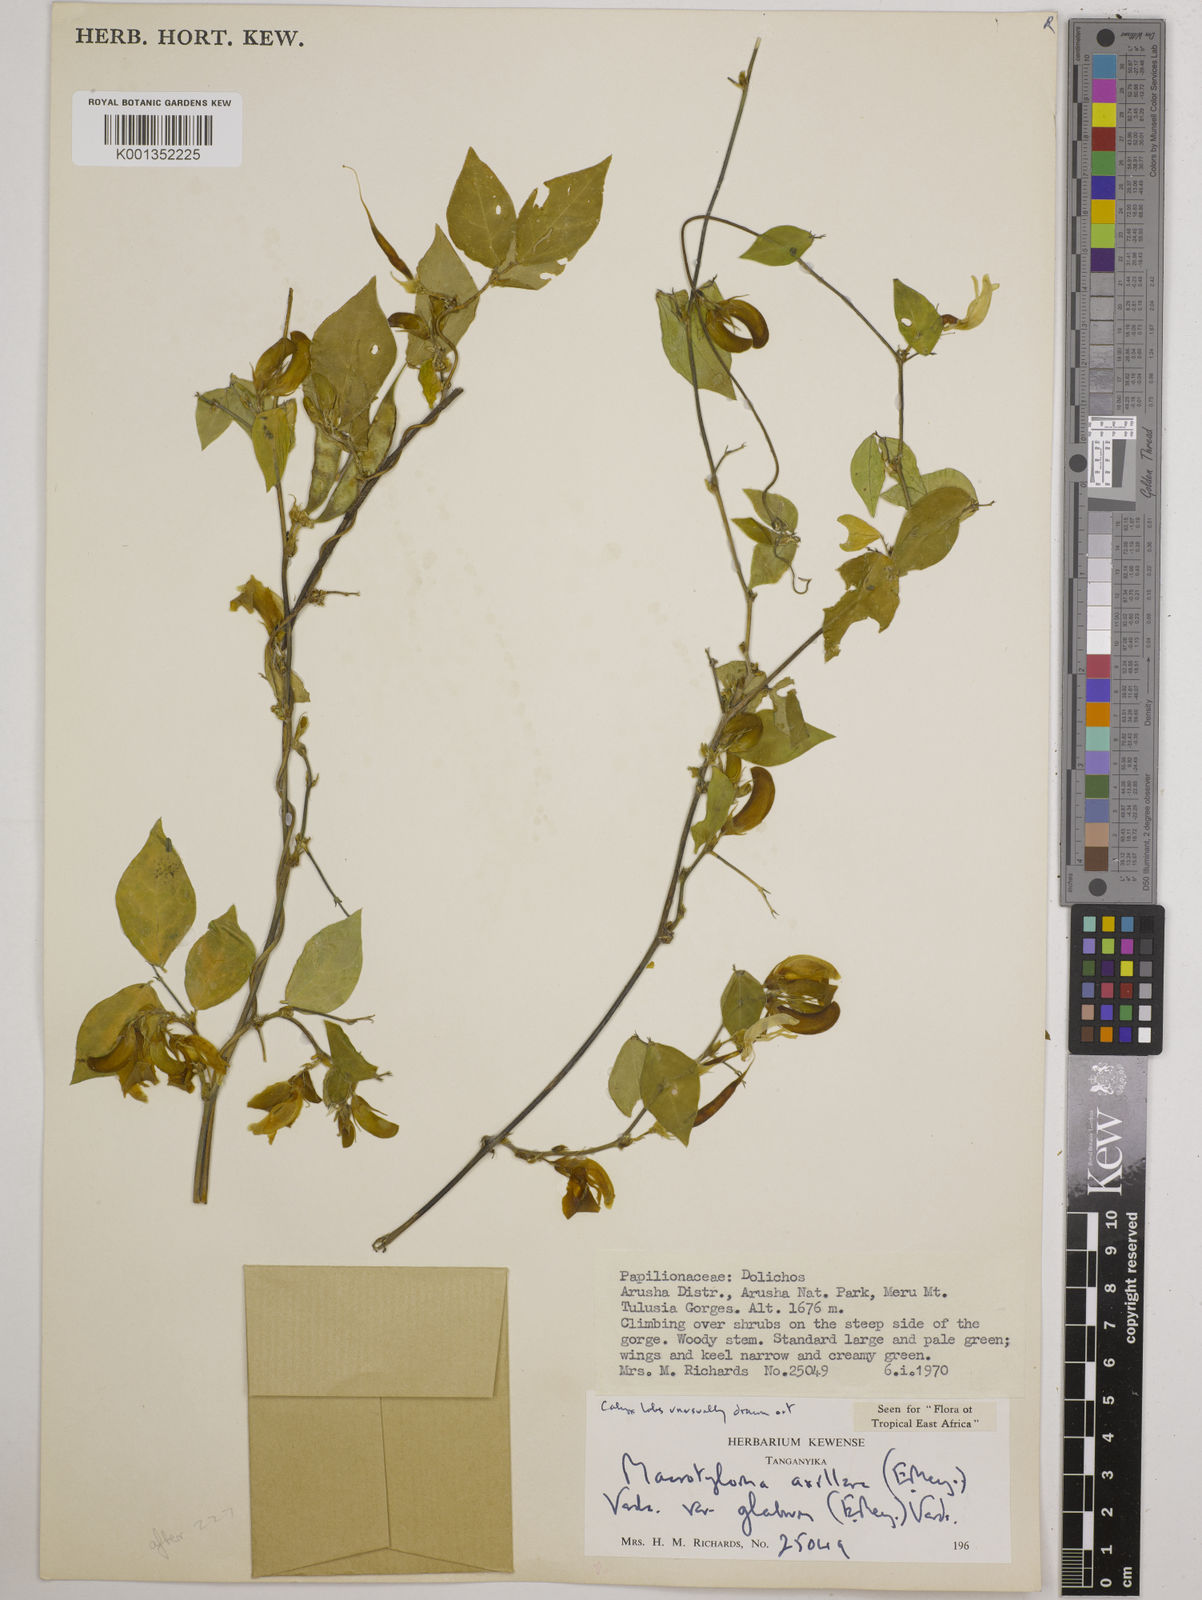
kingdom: Plantae
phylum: Tracheophyta
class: Magnoliopsida
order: Fabales
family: Fabaceae
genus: Macrotyloma
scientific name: Macrotyloma
